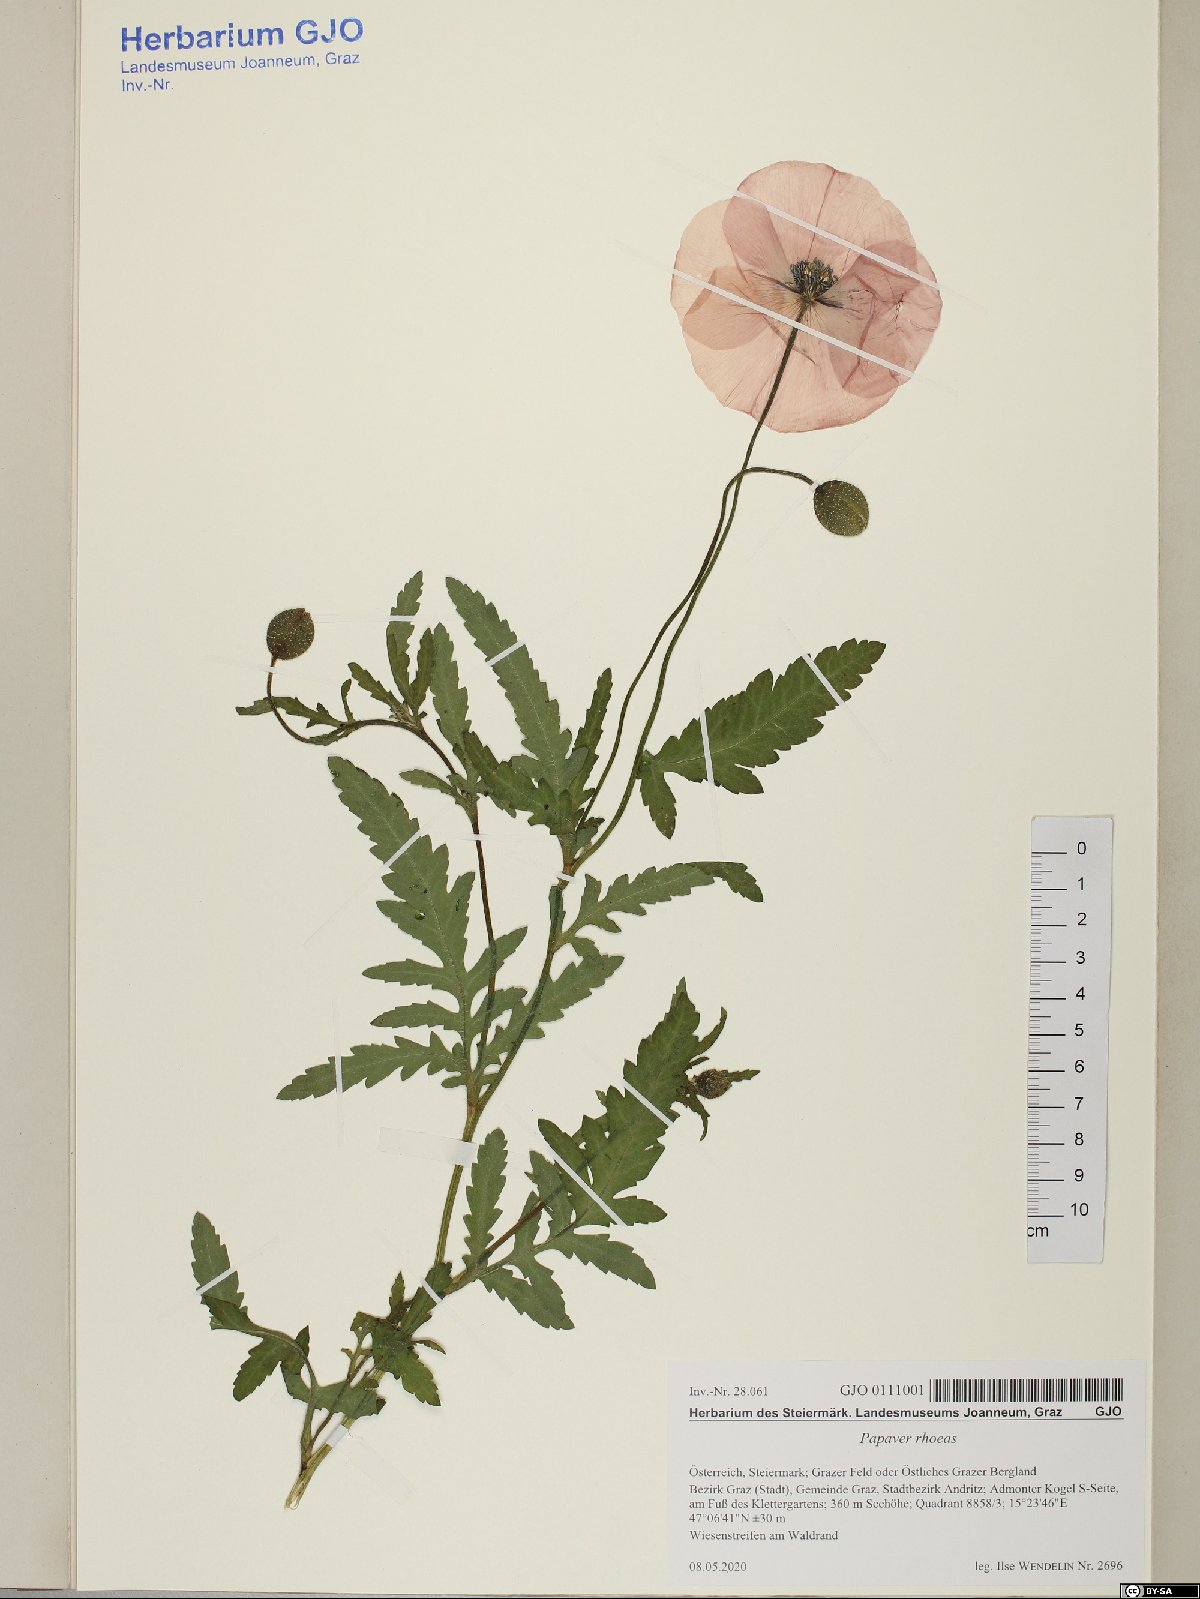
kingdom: Plantae
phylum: Tracheophyta
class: Magnoliopsida
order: Ranunculales
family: Papaveraceae
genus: Papaver
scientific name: Papaver rhoeas
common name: Corn poppy
